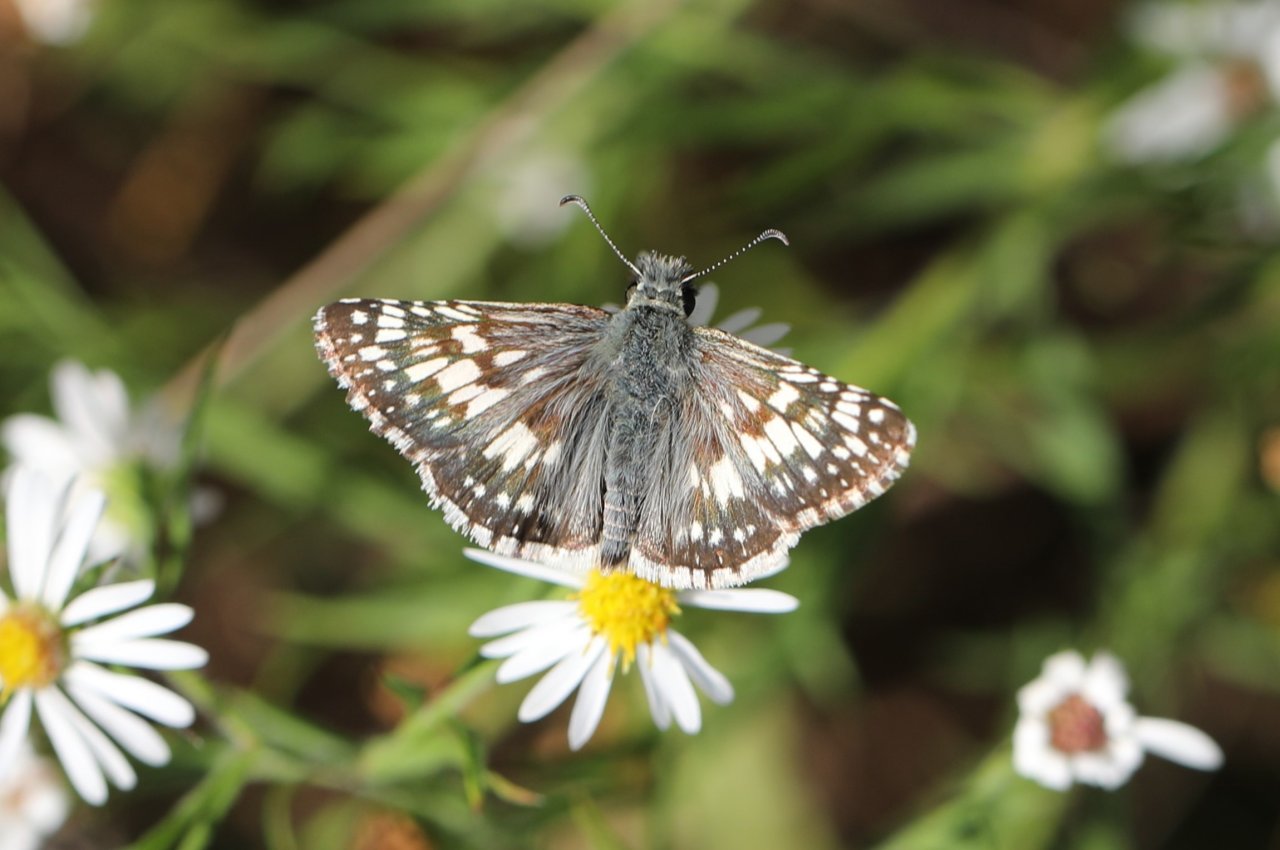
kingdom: Animalia
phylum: Arthropoda
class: Insecta
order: Lepidoptera
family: Hesperiidae
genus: Pyrgus
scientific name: Pyrgus communis
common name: Common Checkered-Skipper
